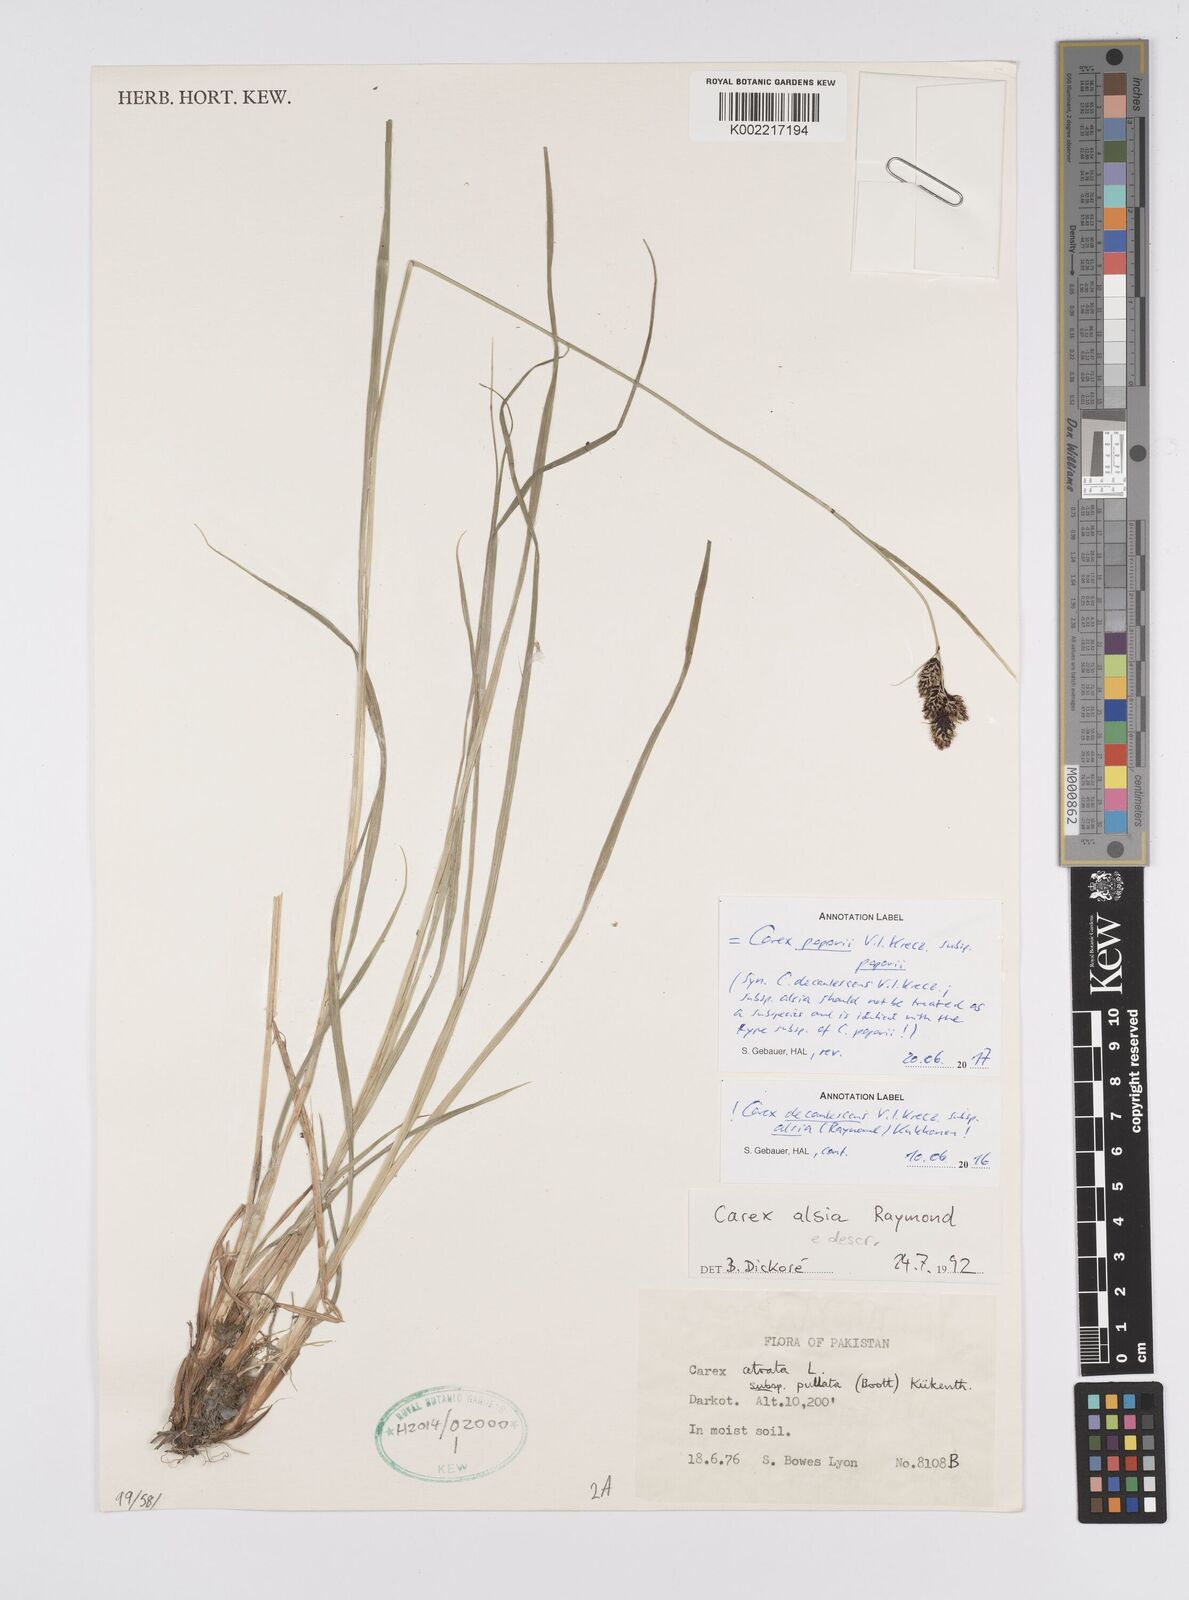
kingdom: Plantae
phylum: Tracheophyta
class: Liliopsida
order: Poales
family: Cyperaceae
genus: Carex
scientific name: Carex paponii
